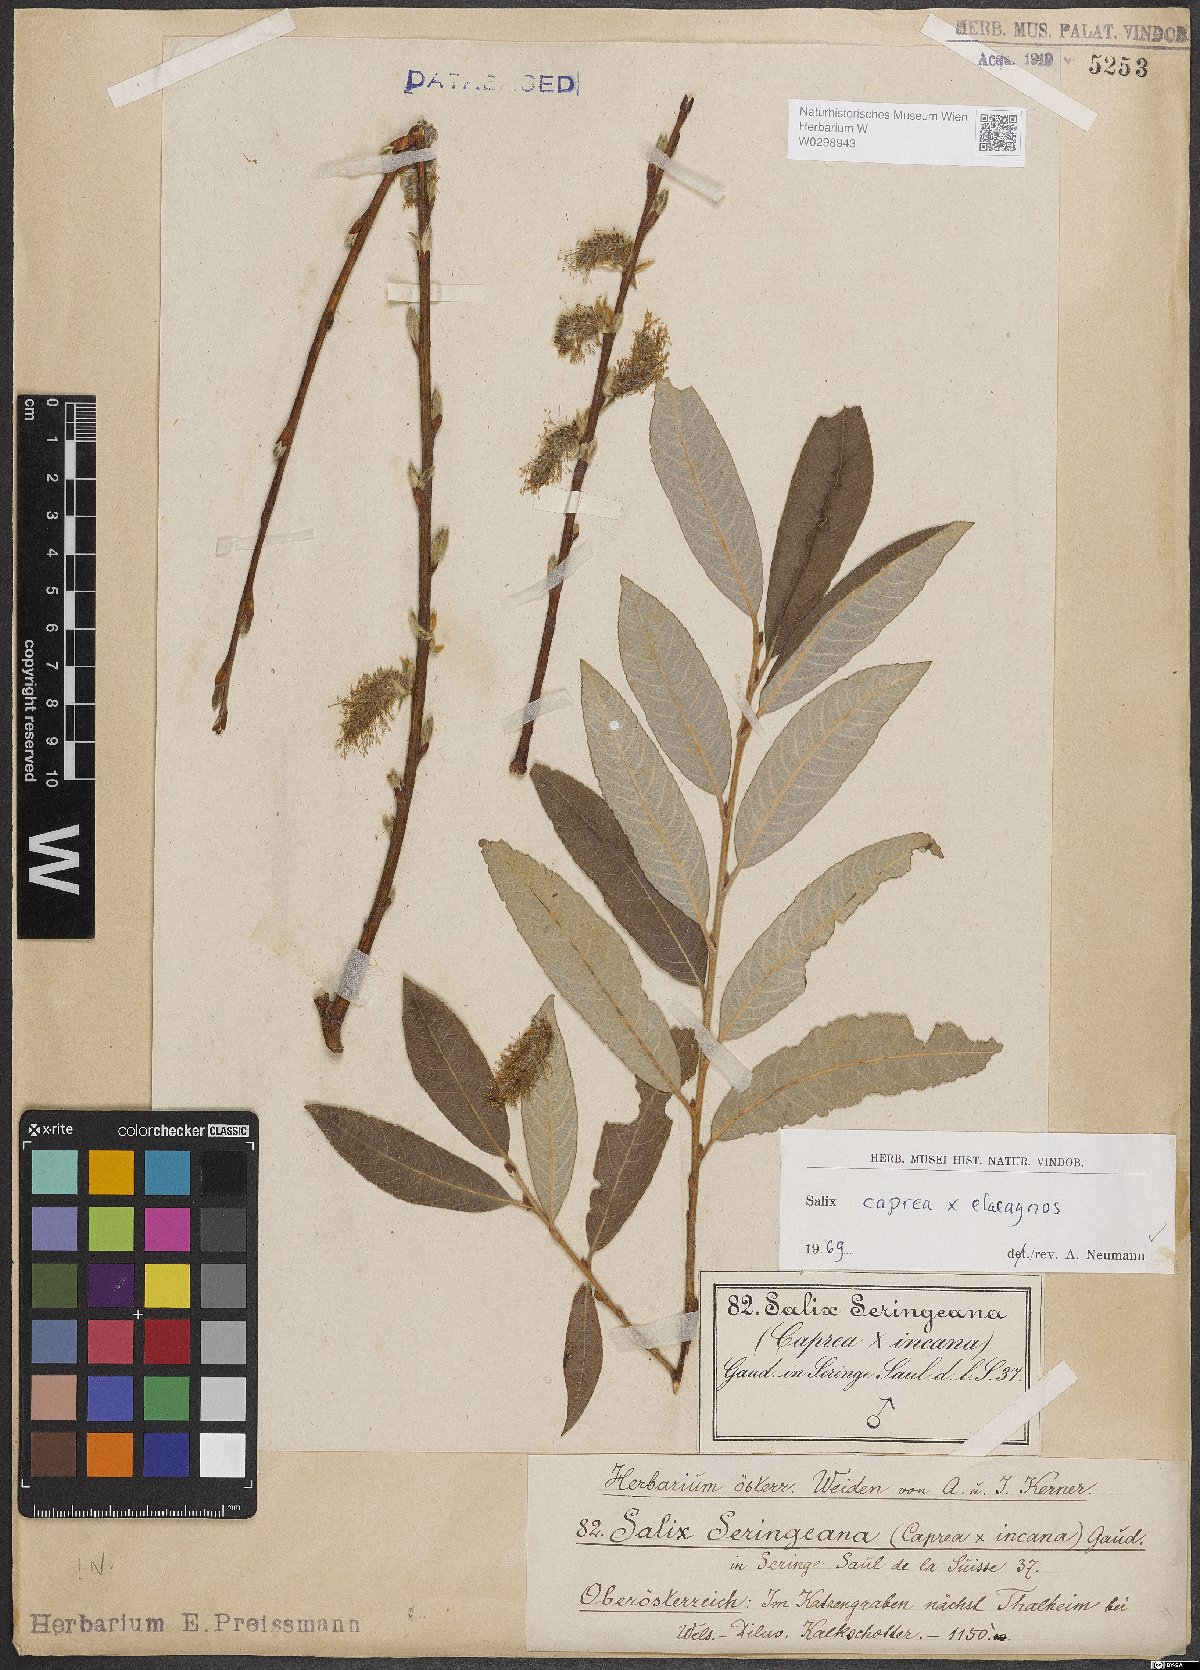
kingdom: Plantae
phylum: Tracheophyta
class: Magnoliopsida
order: Malpighiales
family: Salicaceae
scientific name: Salicaceae
